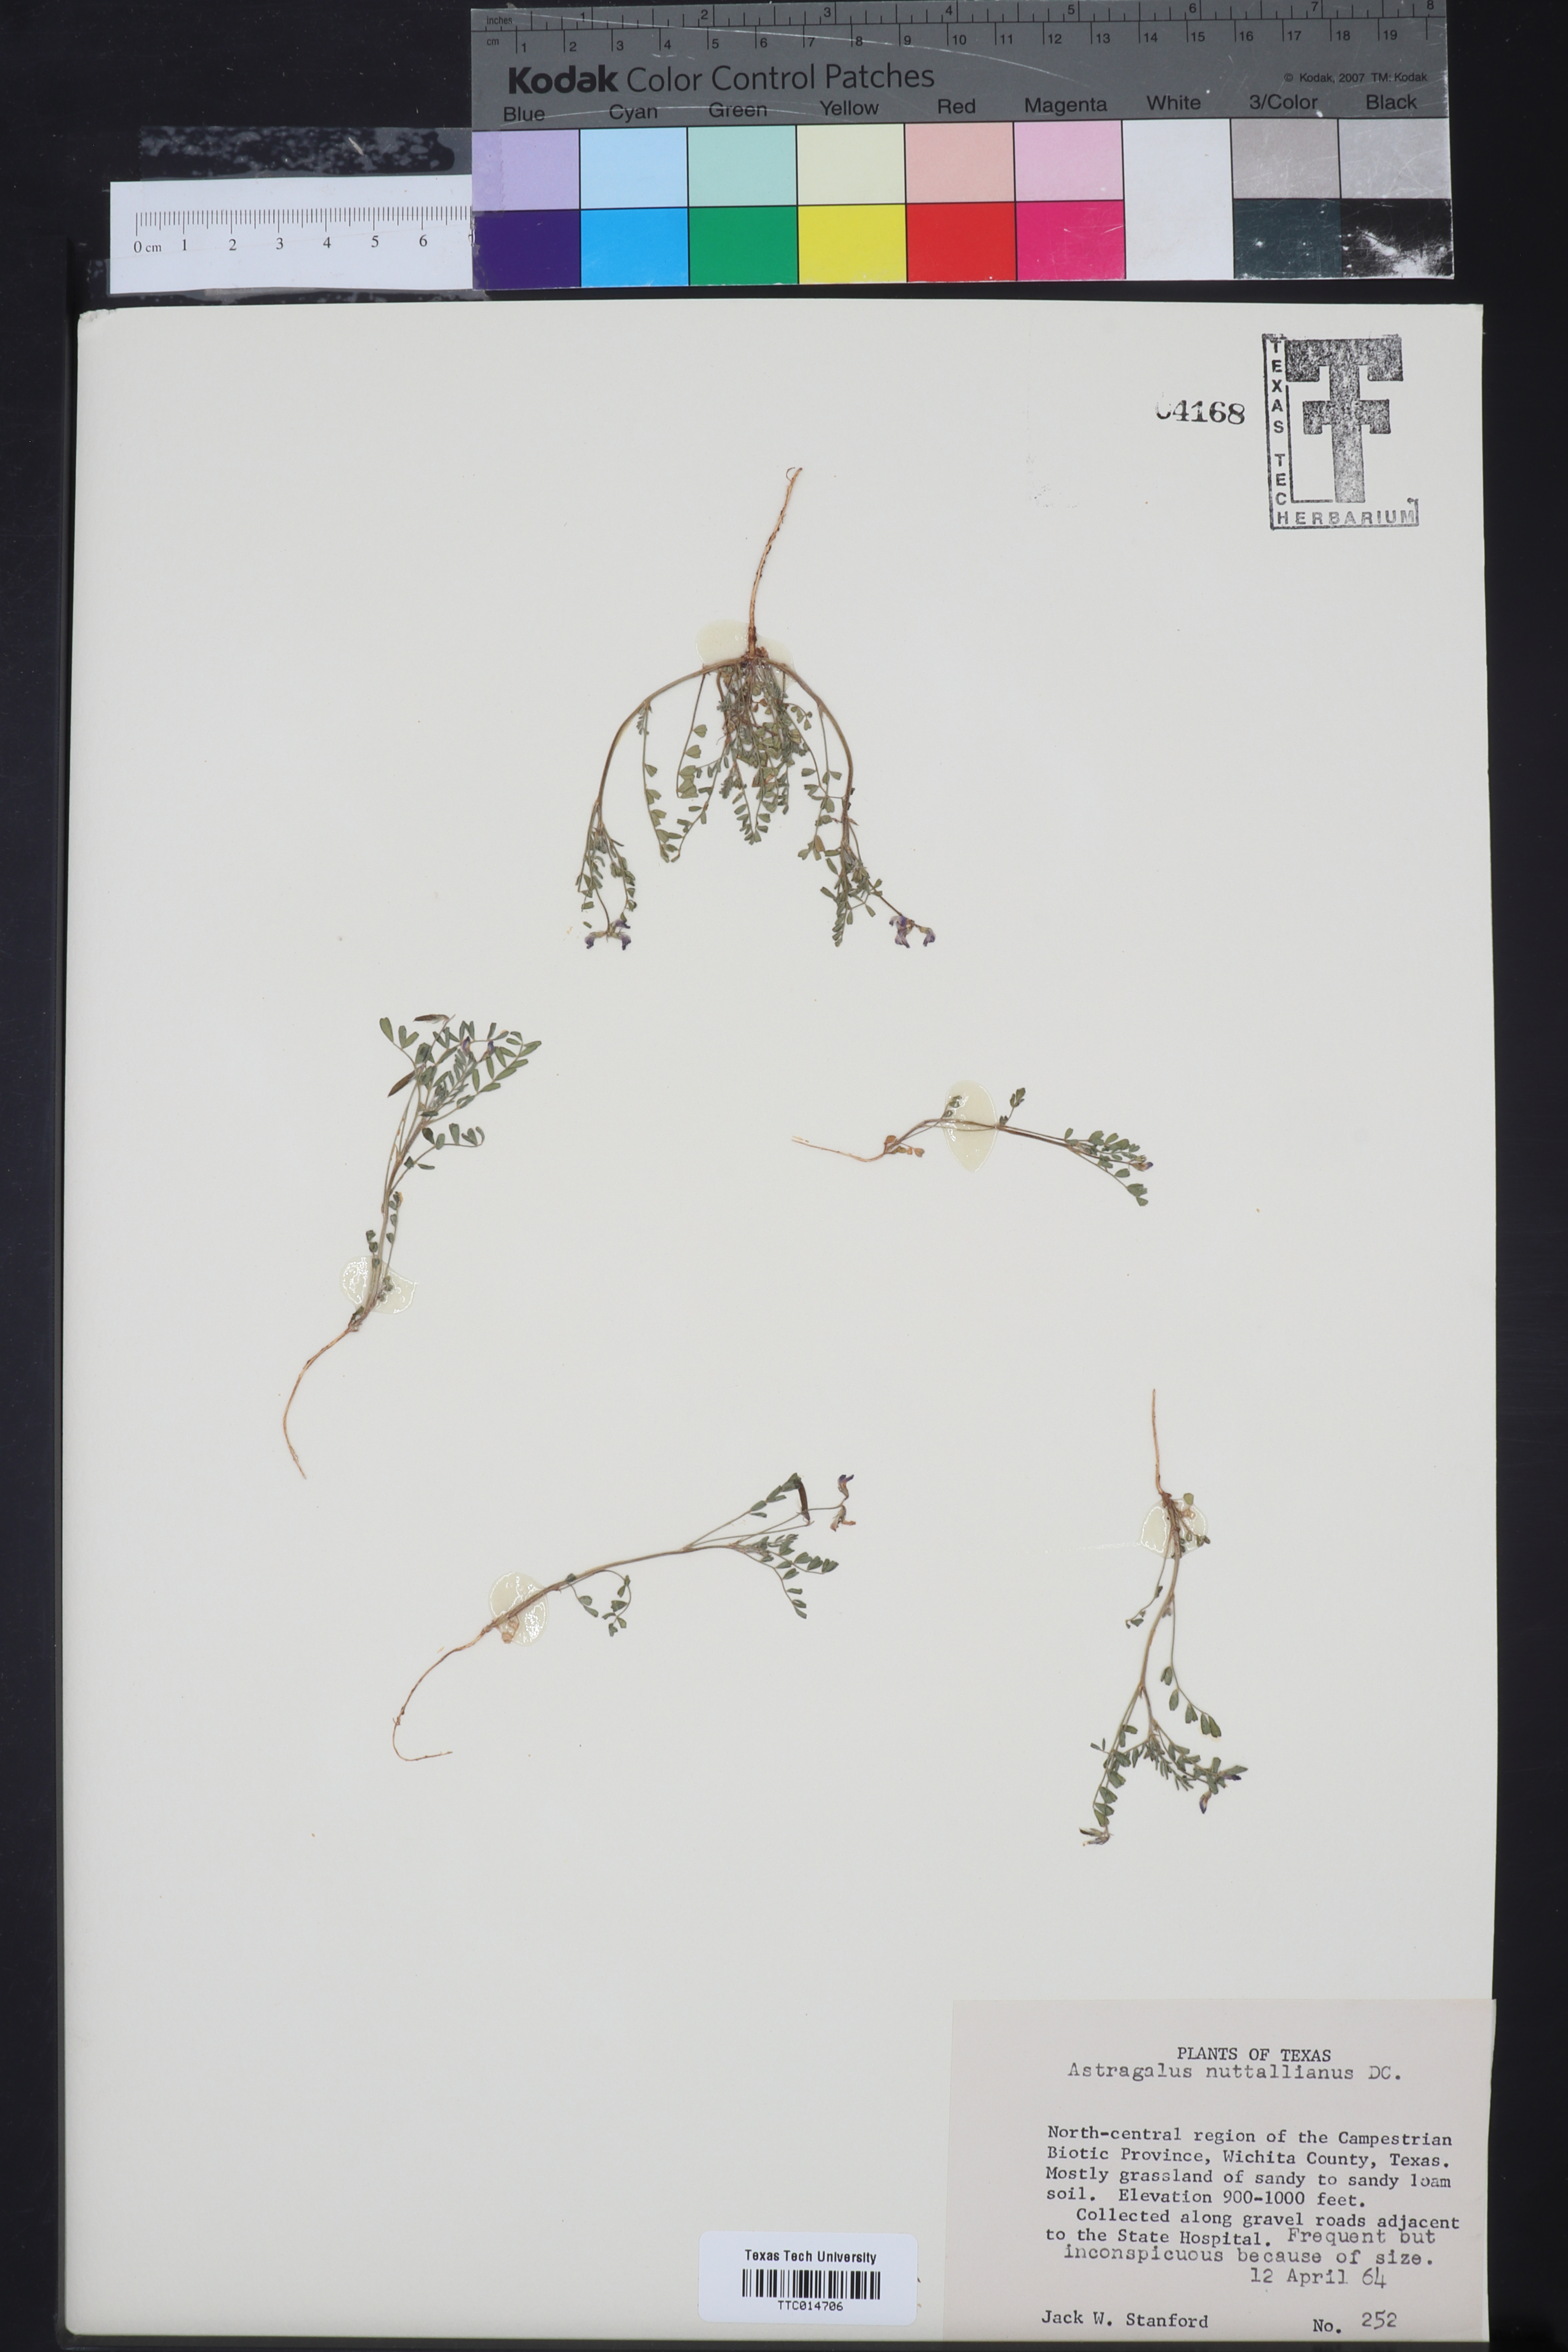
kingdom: Plantae
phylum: Tracheophyta
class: Magnoliopsida
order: Fabales
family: Fabaceae
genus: Astragalus
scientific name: Astragalus nuttallianus
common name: Smallflowered milkvetch
